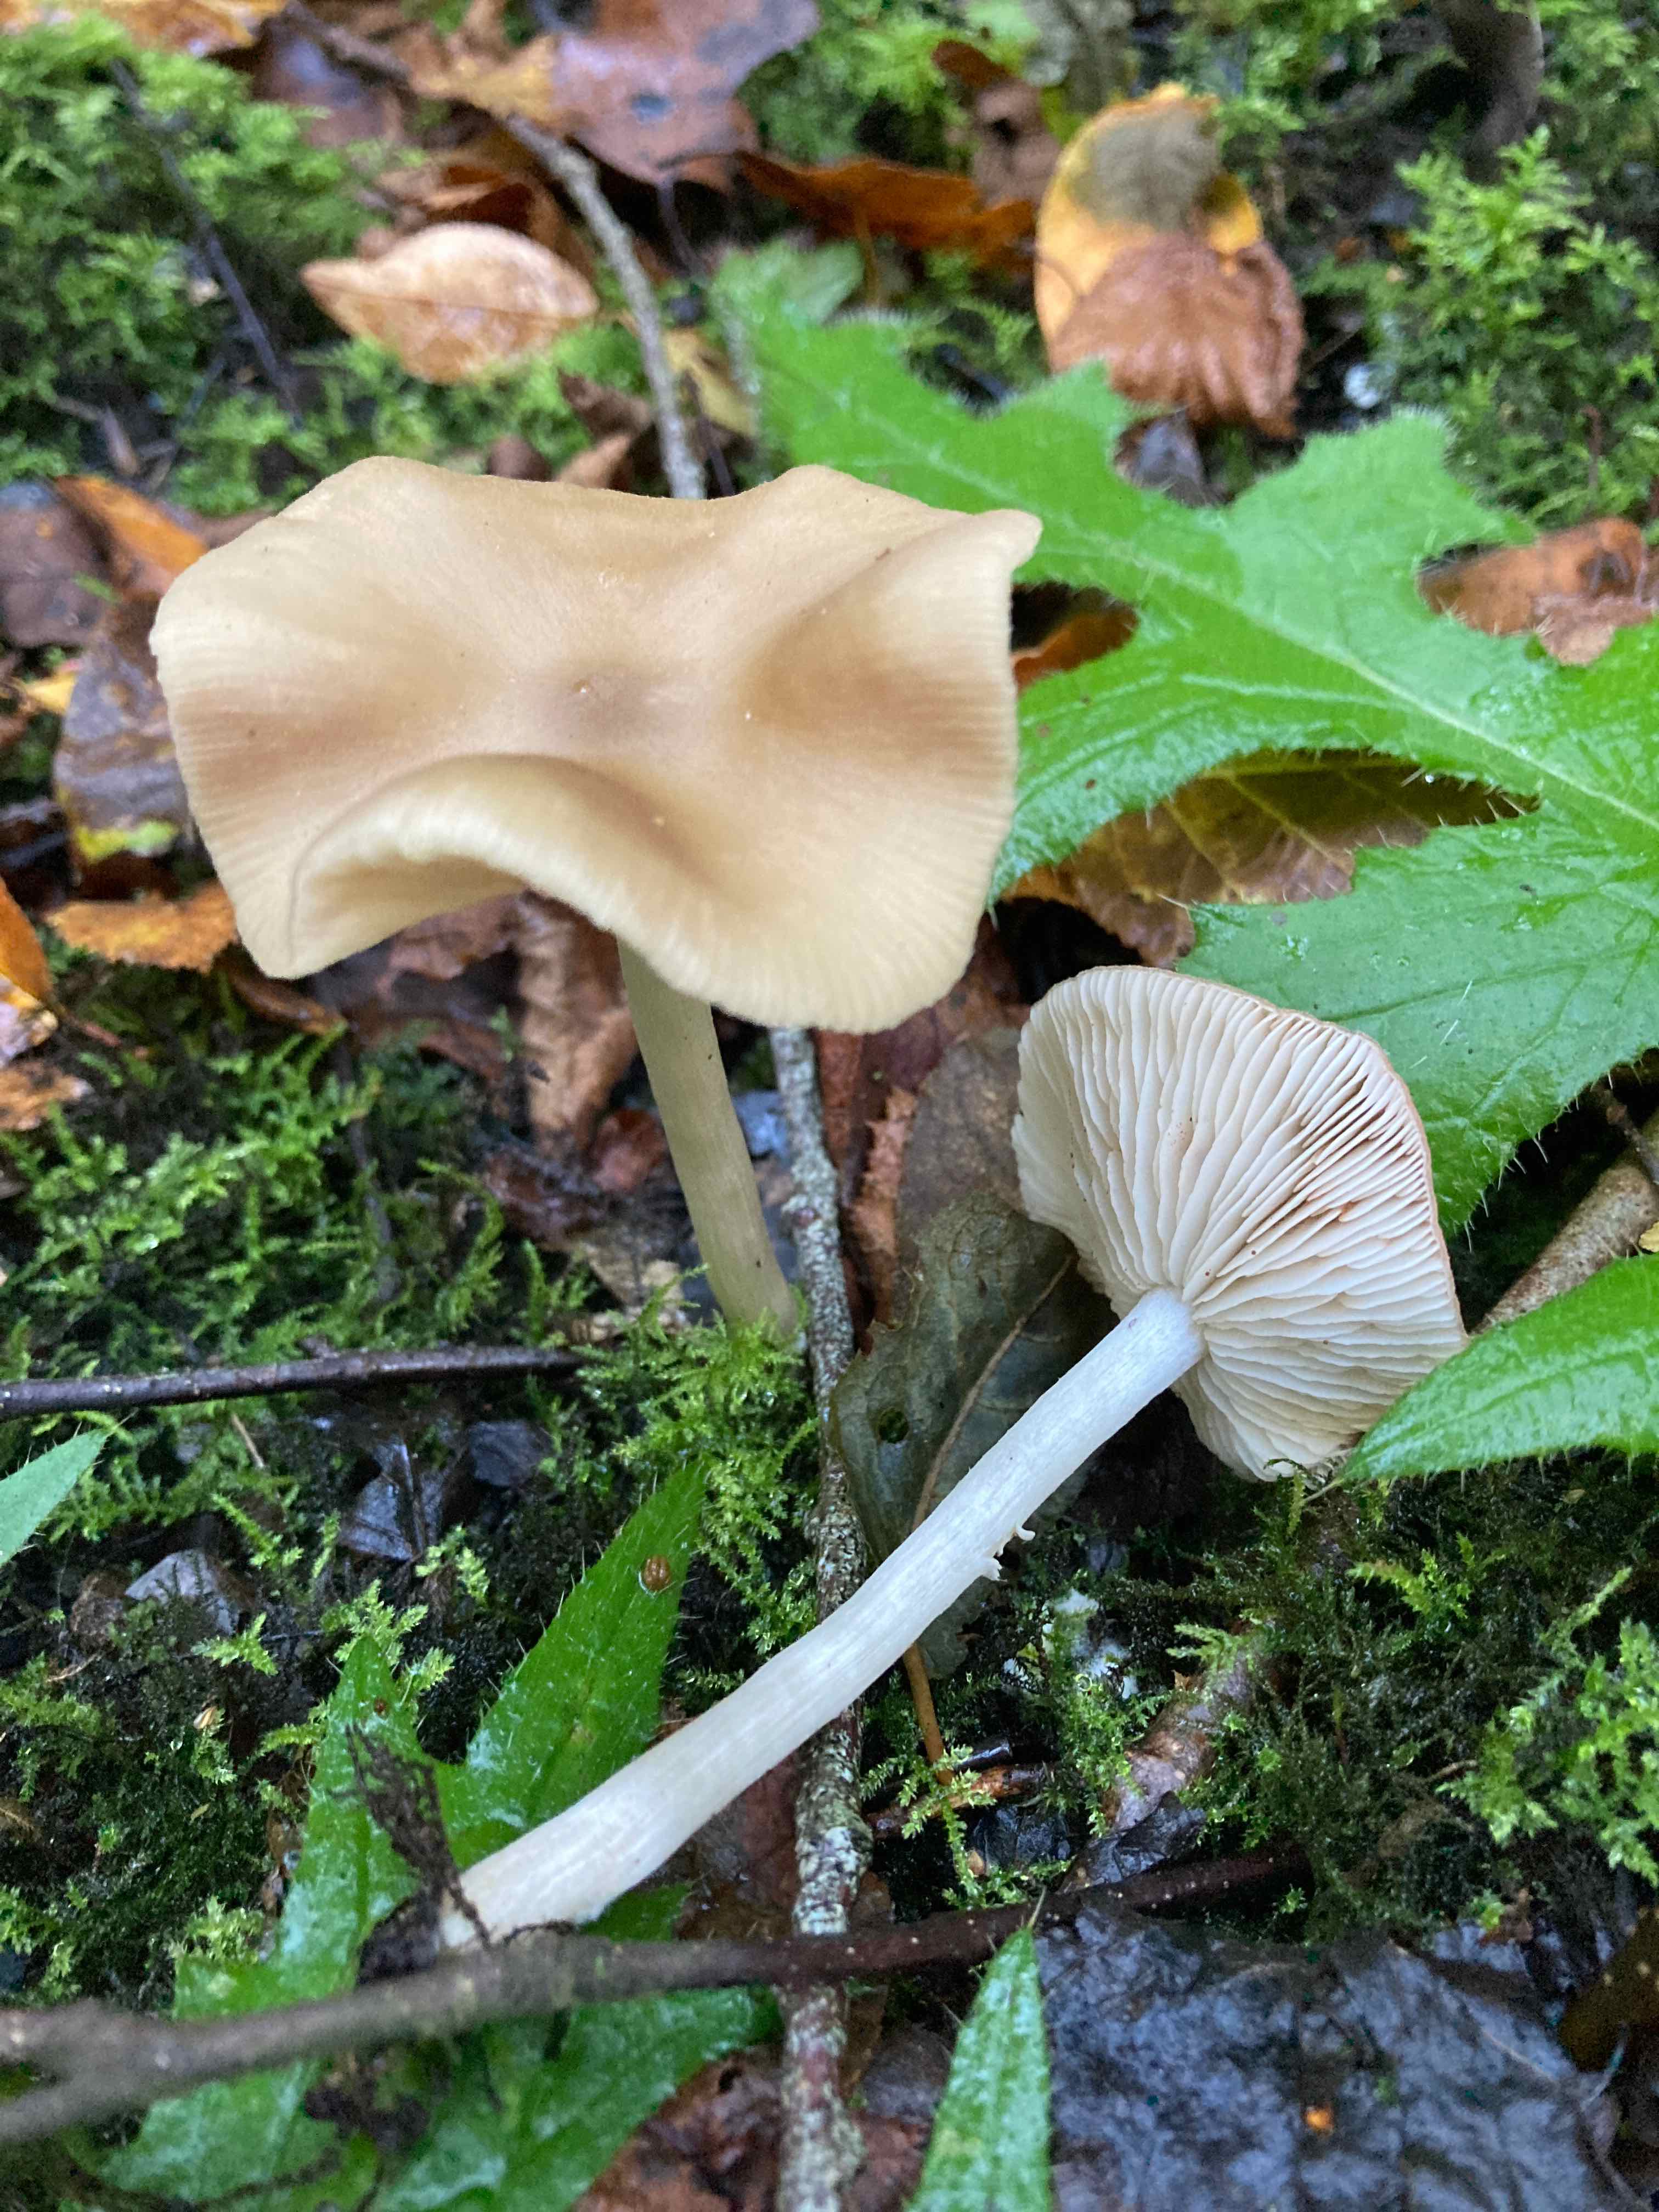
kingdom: Fungi
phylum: Basidiomycota
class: Agaricomycetes
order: Agaricales
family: Entolomataceae
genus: Entoloma
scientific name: Entoloma sericatum
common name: rank rødblad
